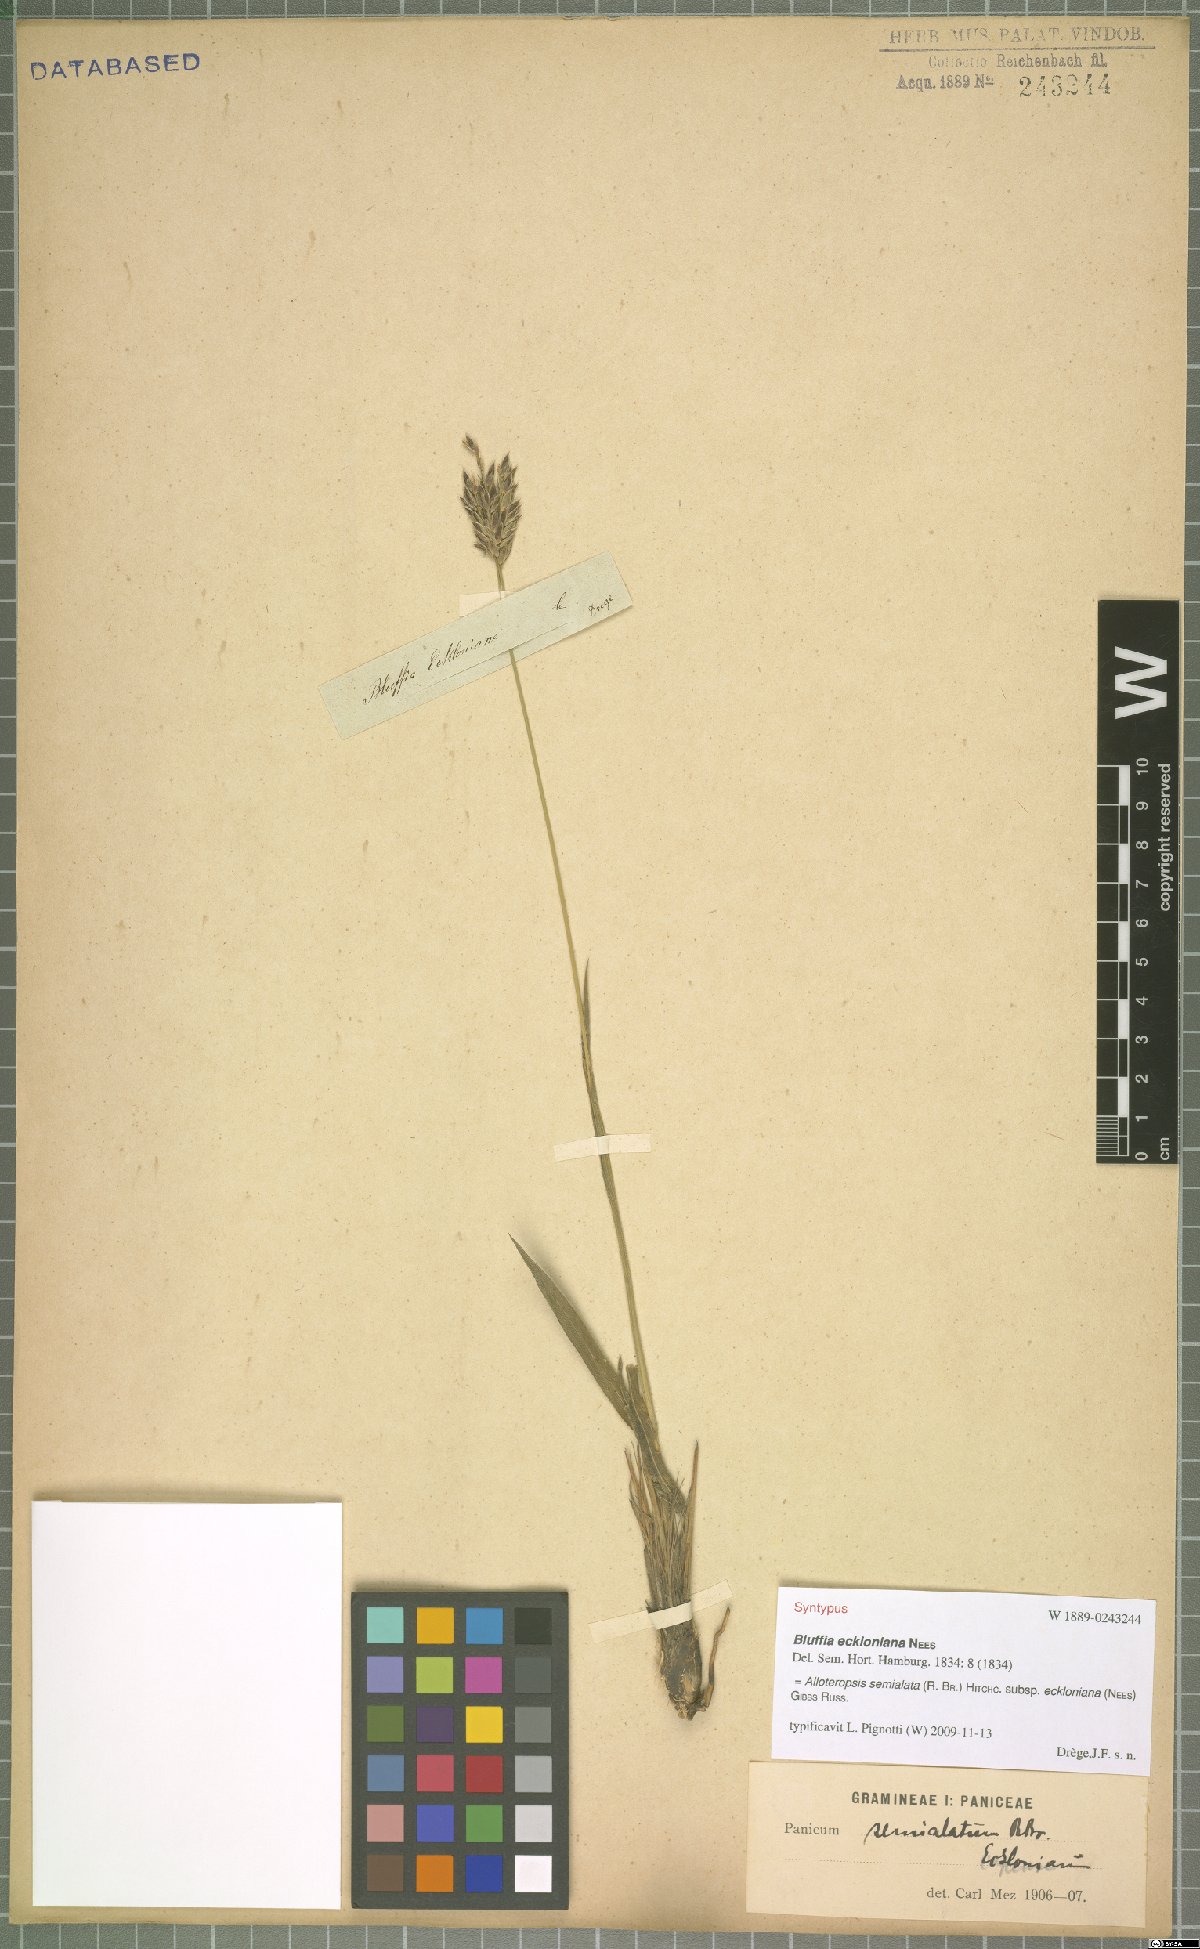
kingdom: Plantae
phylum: Tracheophyta
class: Liliopsida
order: Poales
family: Poaceae
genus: Alloteropsis
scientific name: Alloteropsis semialata
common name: Cockatoo grass
